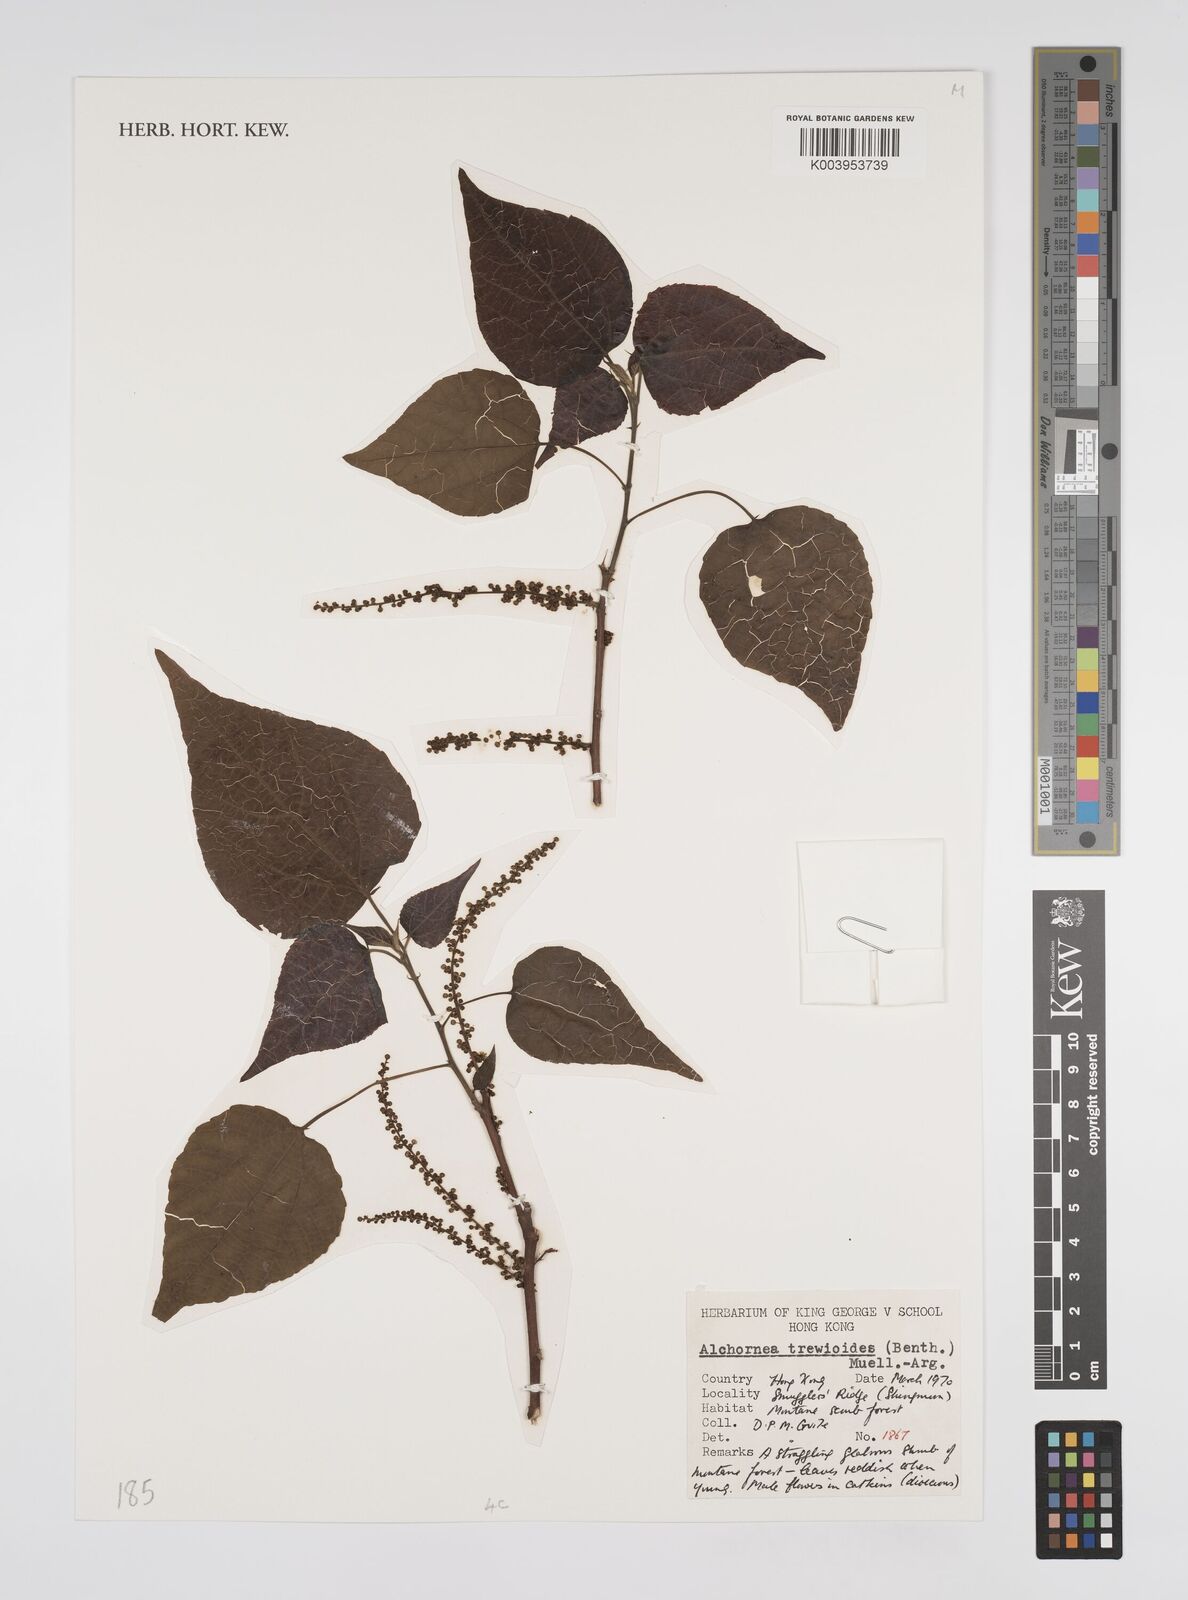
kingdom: Plantae
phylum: Tracheophyta
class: Magnoliopsida
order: Malpighiales
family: Euphorbiaceae
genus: Alchornea
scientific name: Alchornea trewioides
